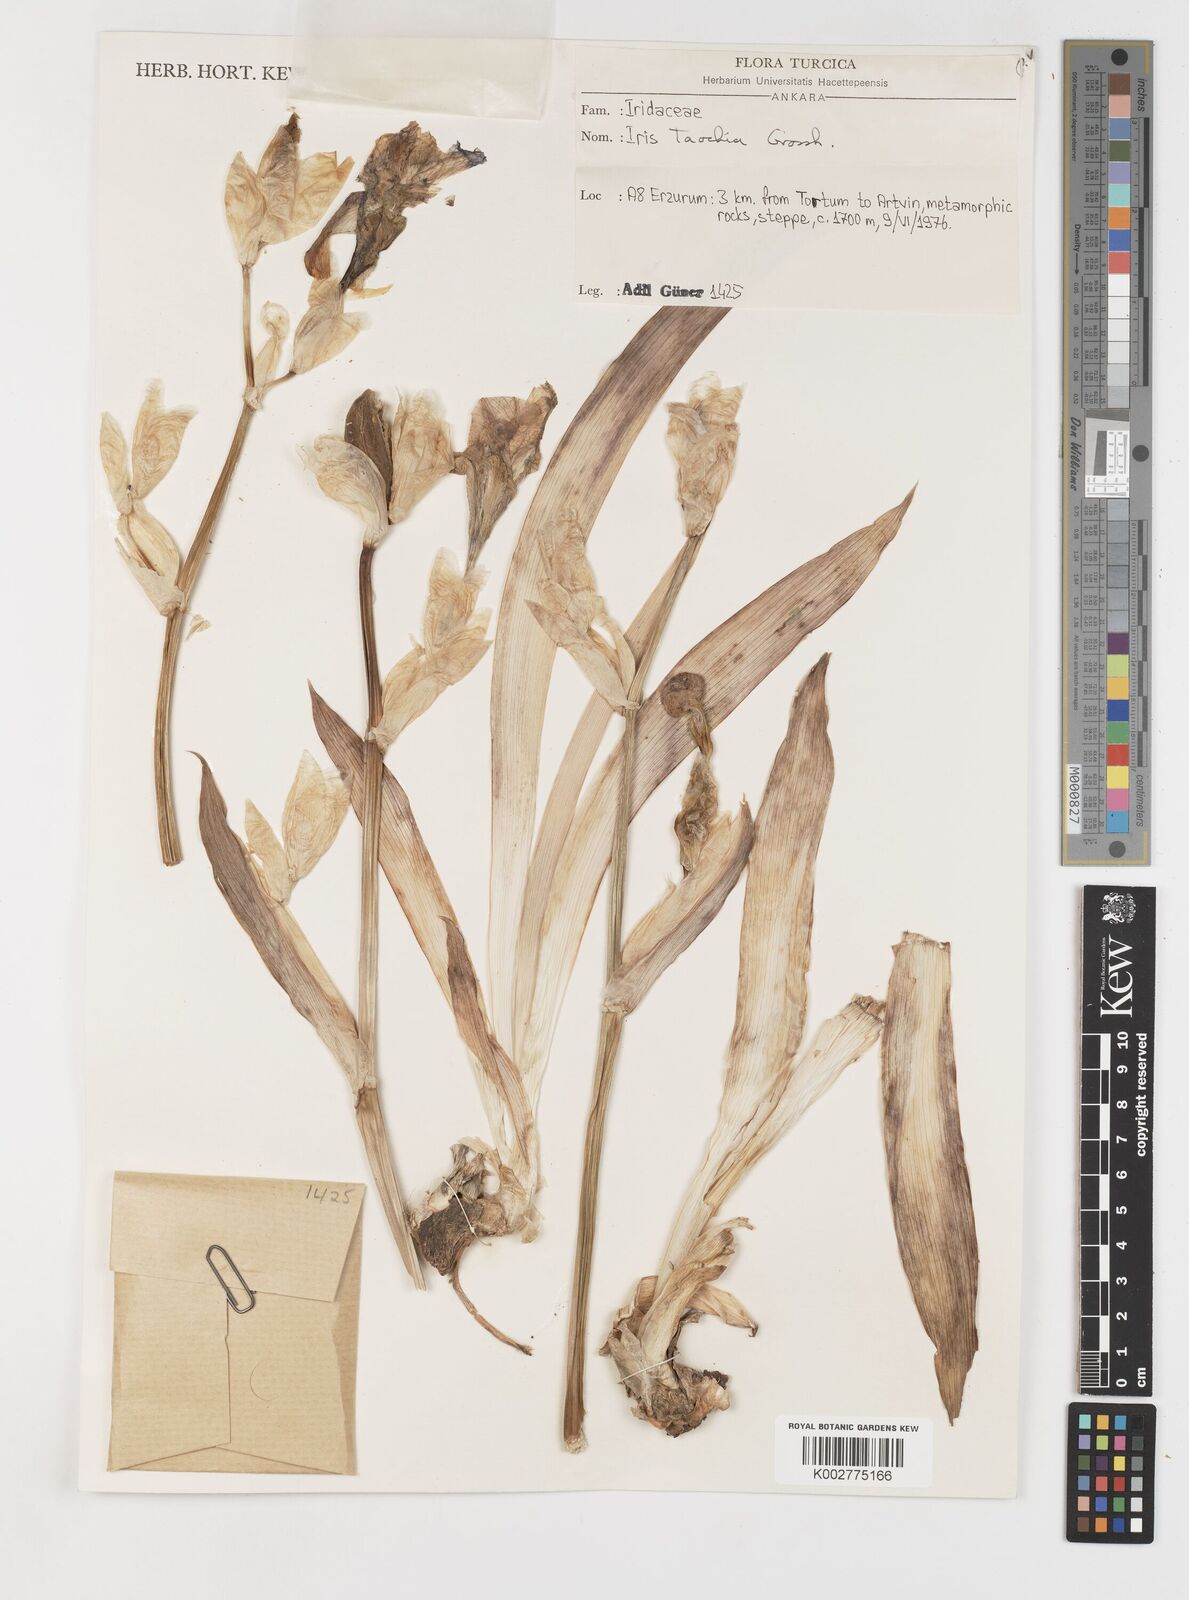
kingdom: Plantae
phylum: Tracheophyta
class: Liliopsida
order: Asparagales
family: Iridaceae
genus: Iris
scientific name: Iris taochia
